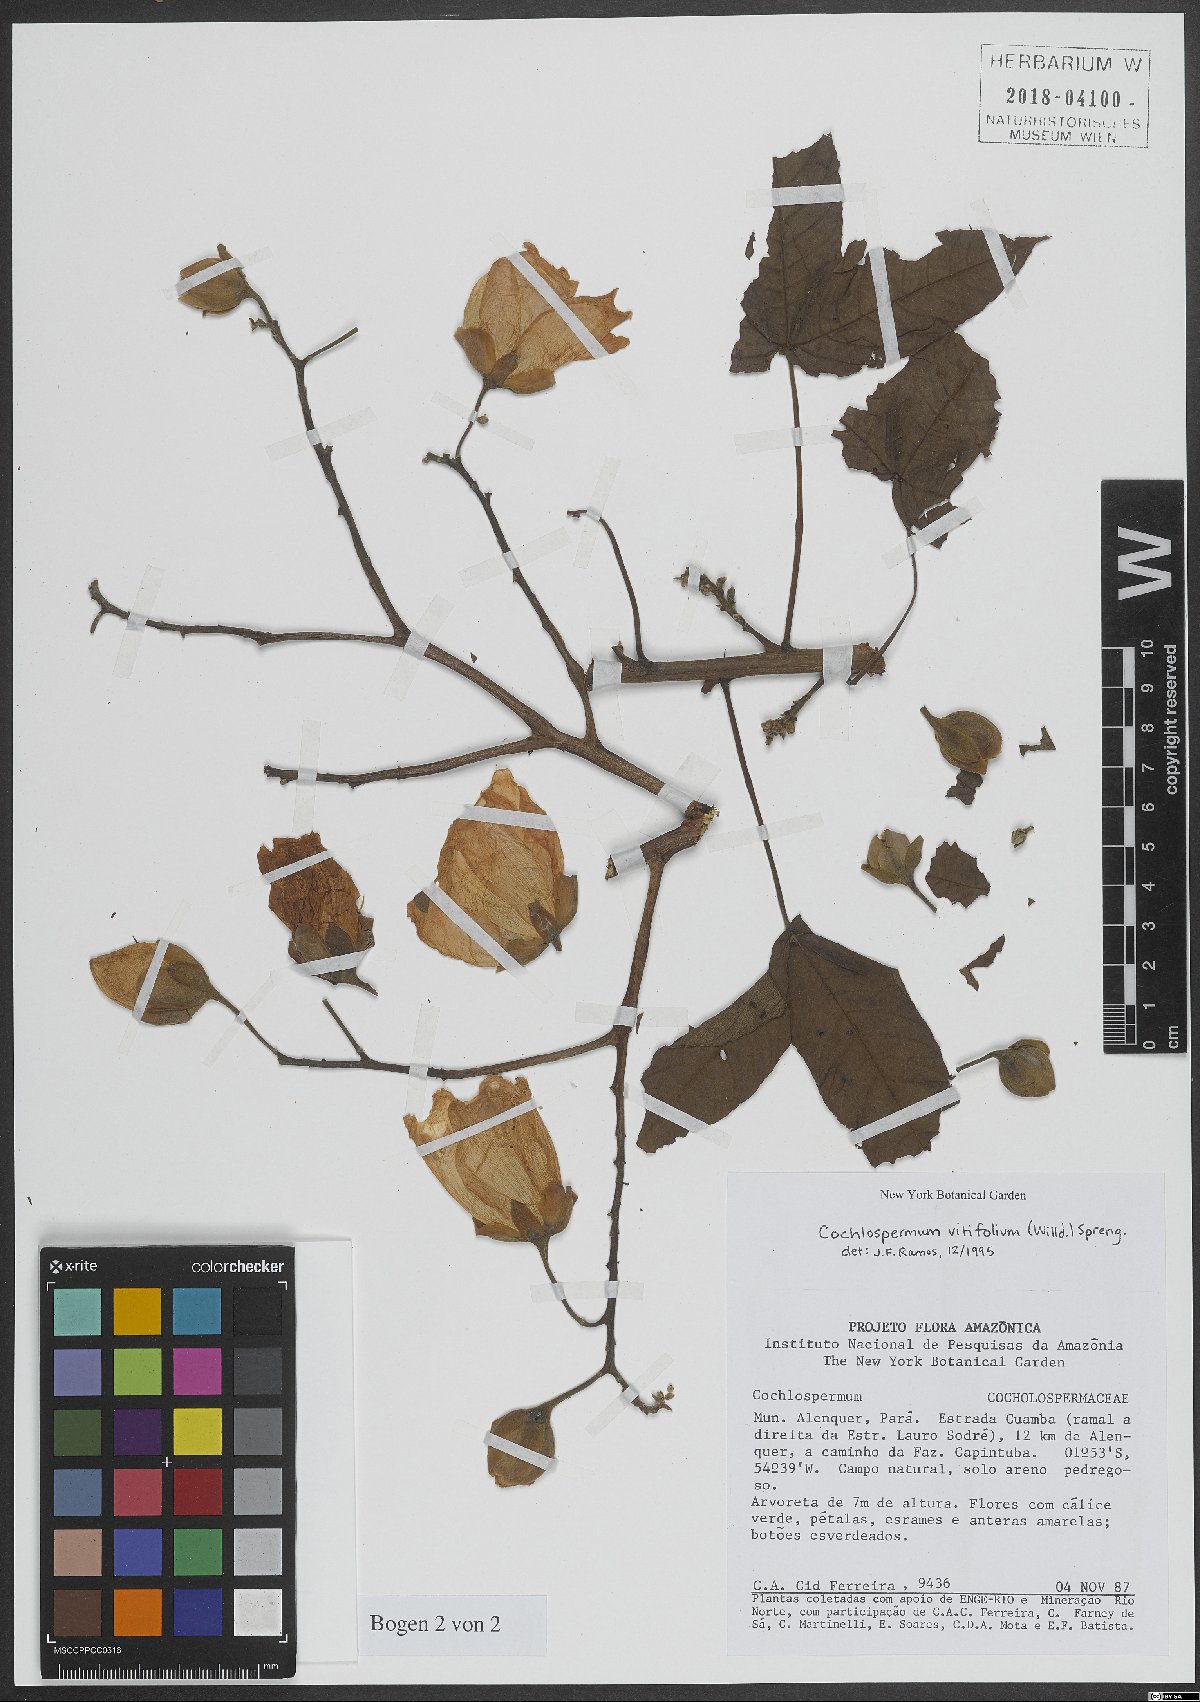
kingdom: Plantae
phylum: Tracheophyta
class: Magnoliopsida
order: Malvales
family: Cochlospermaceae
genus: Cochlospermum
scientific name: Cochlospermum vitifolium
